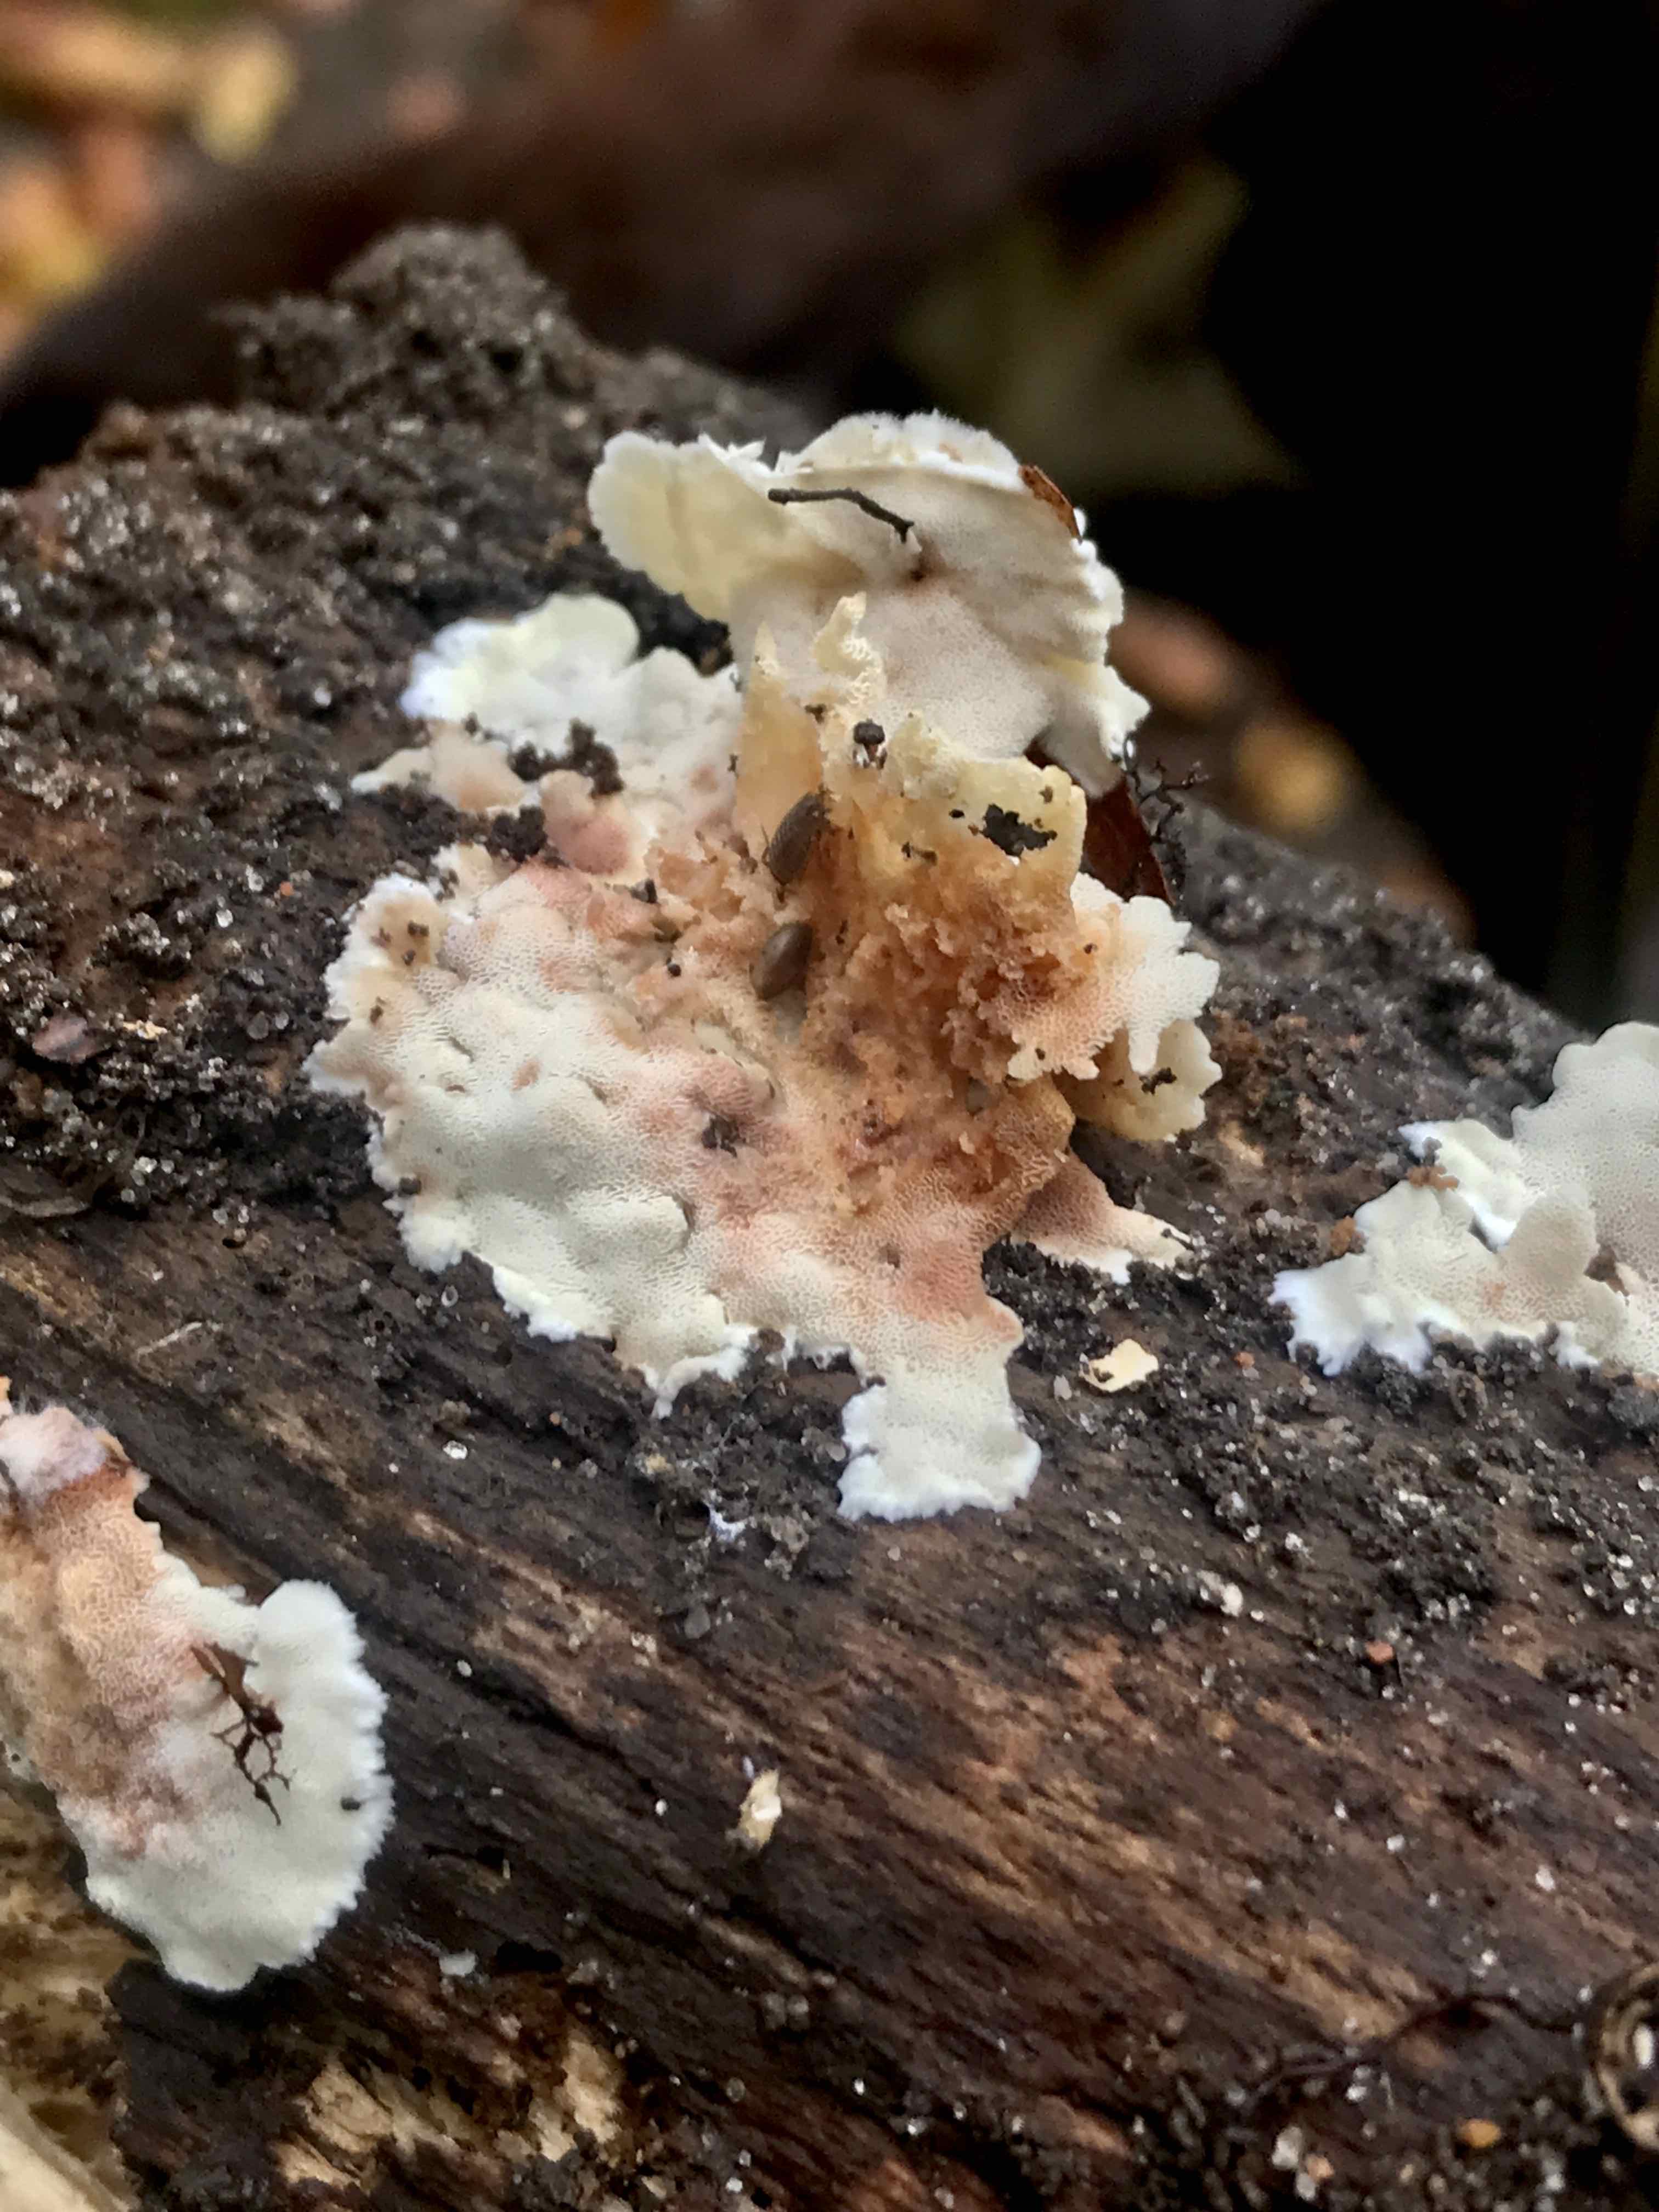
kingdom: Fungi
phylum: Basidiomycota
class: Agaricomycetes
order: Polyporales
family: Steccherinaceae
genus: Antrodiella
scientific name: Antrodiella
